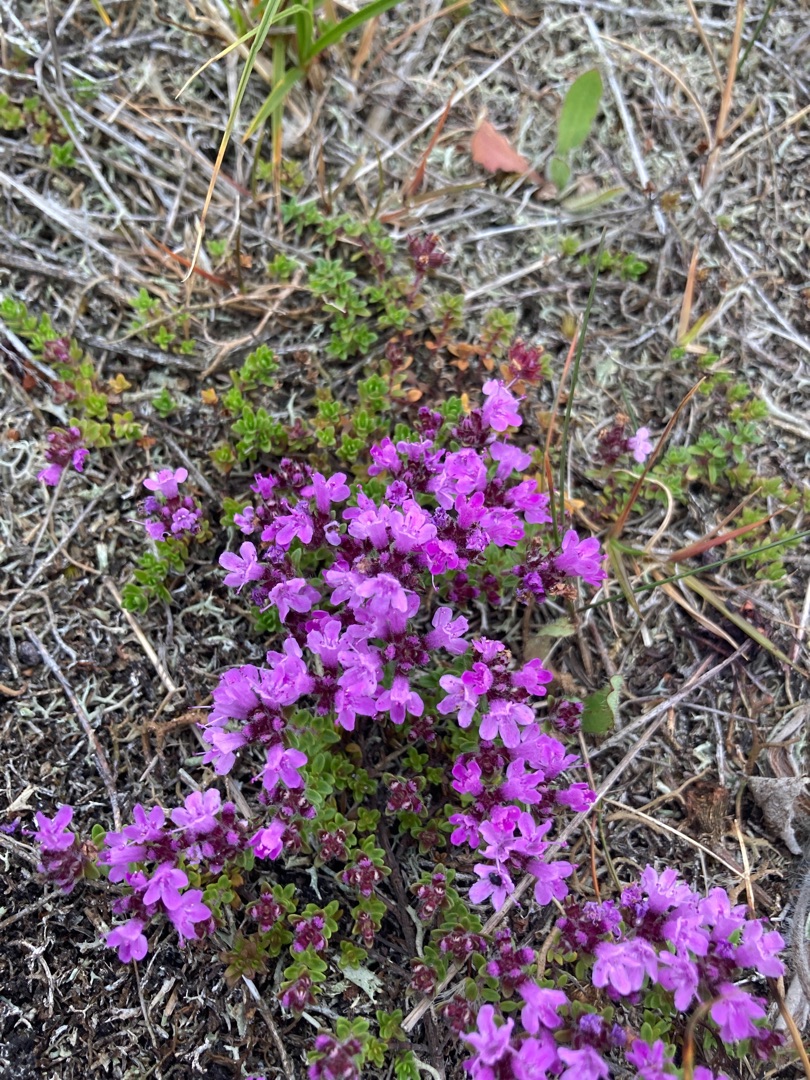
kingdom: Plantae
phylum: Tracheophyta
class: Magnoliopsida
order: Lamiales
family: Lamiaceae
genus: Thymus
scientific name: Thymus serpyllum
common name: Smalbladet timian
